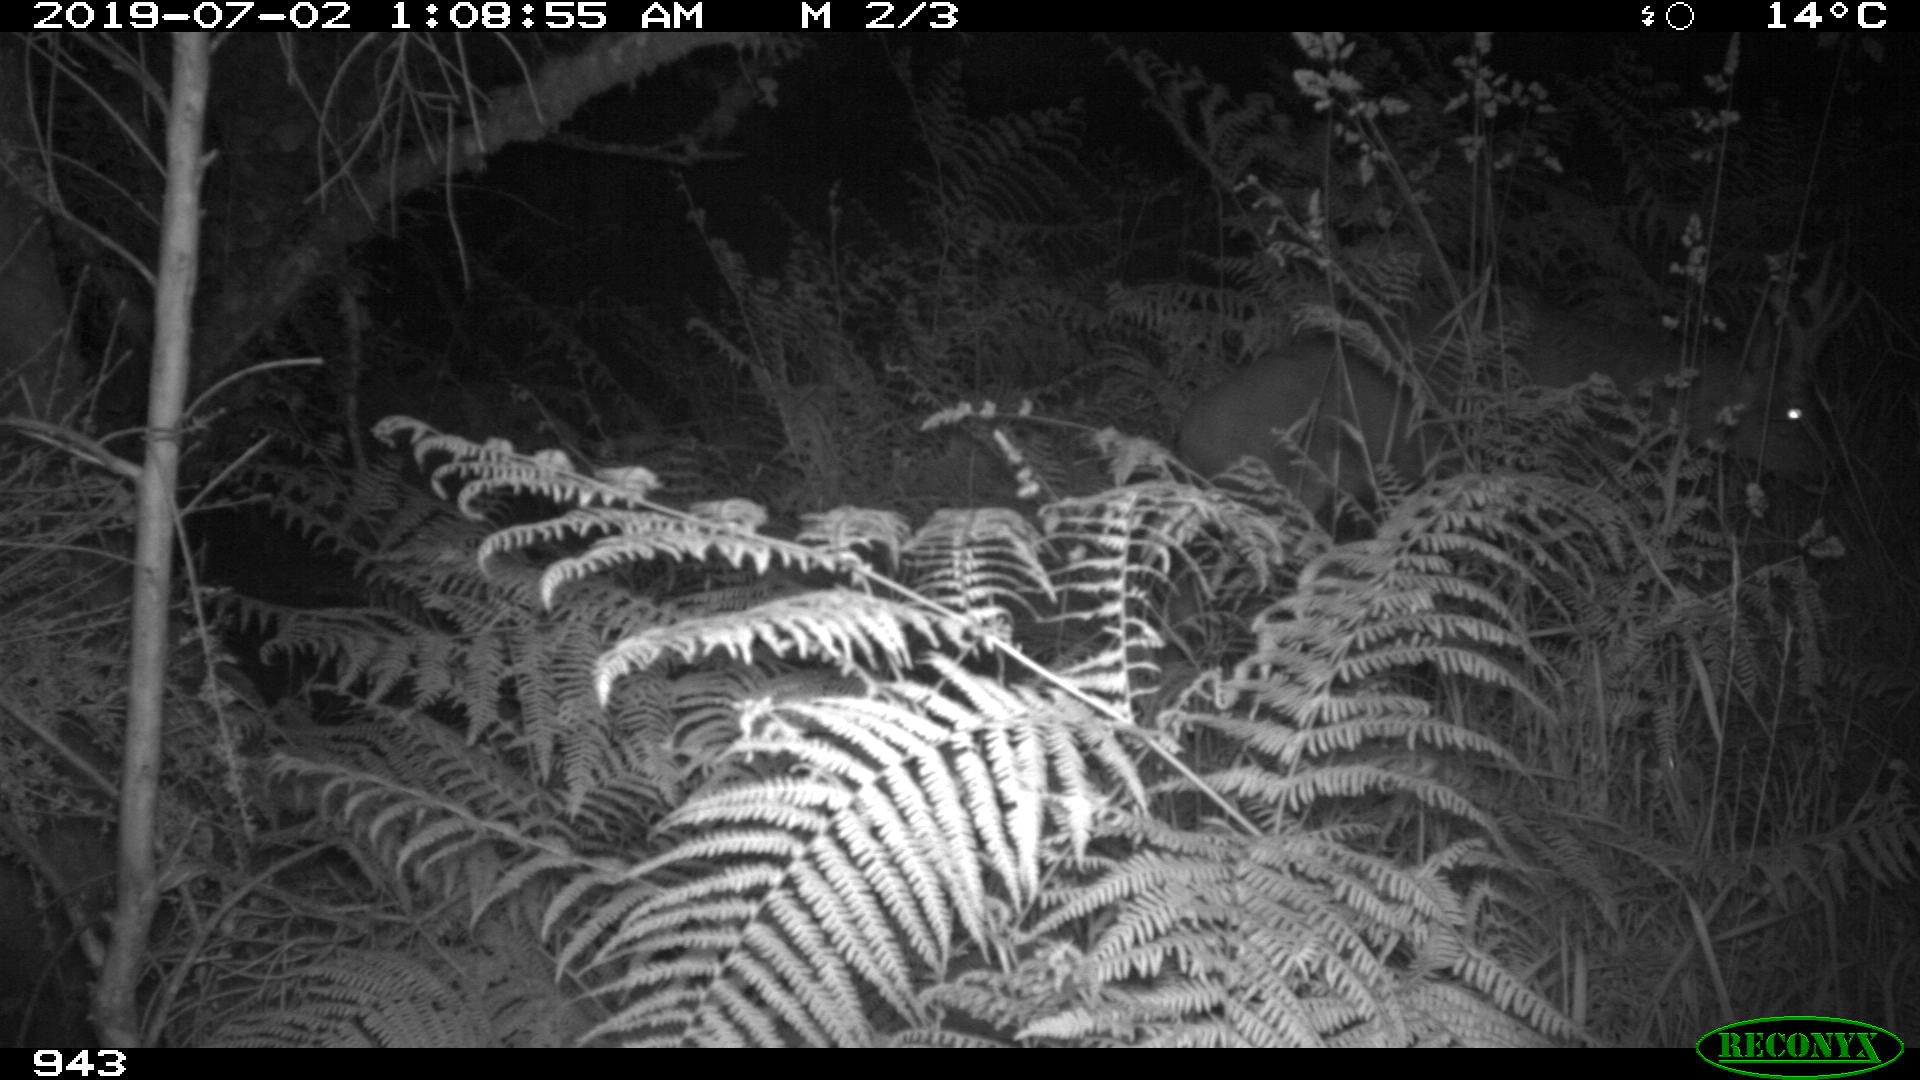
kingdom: Animalia
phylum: Chordata
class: Mammalia
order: Artiodactyla
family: Cervidae
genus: Capreolus
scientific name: Capreolus capreolus
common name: Western roe deer
